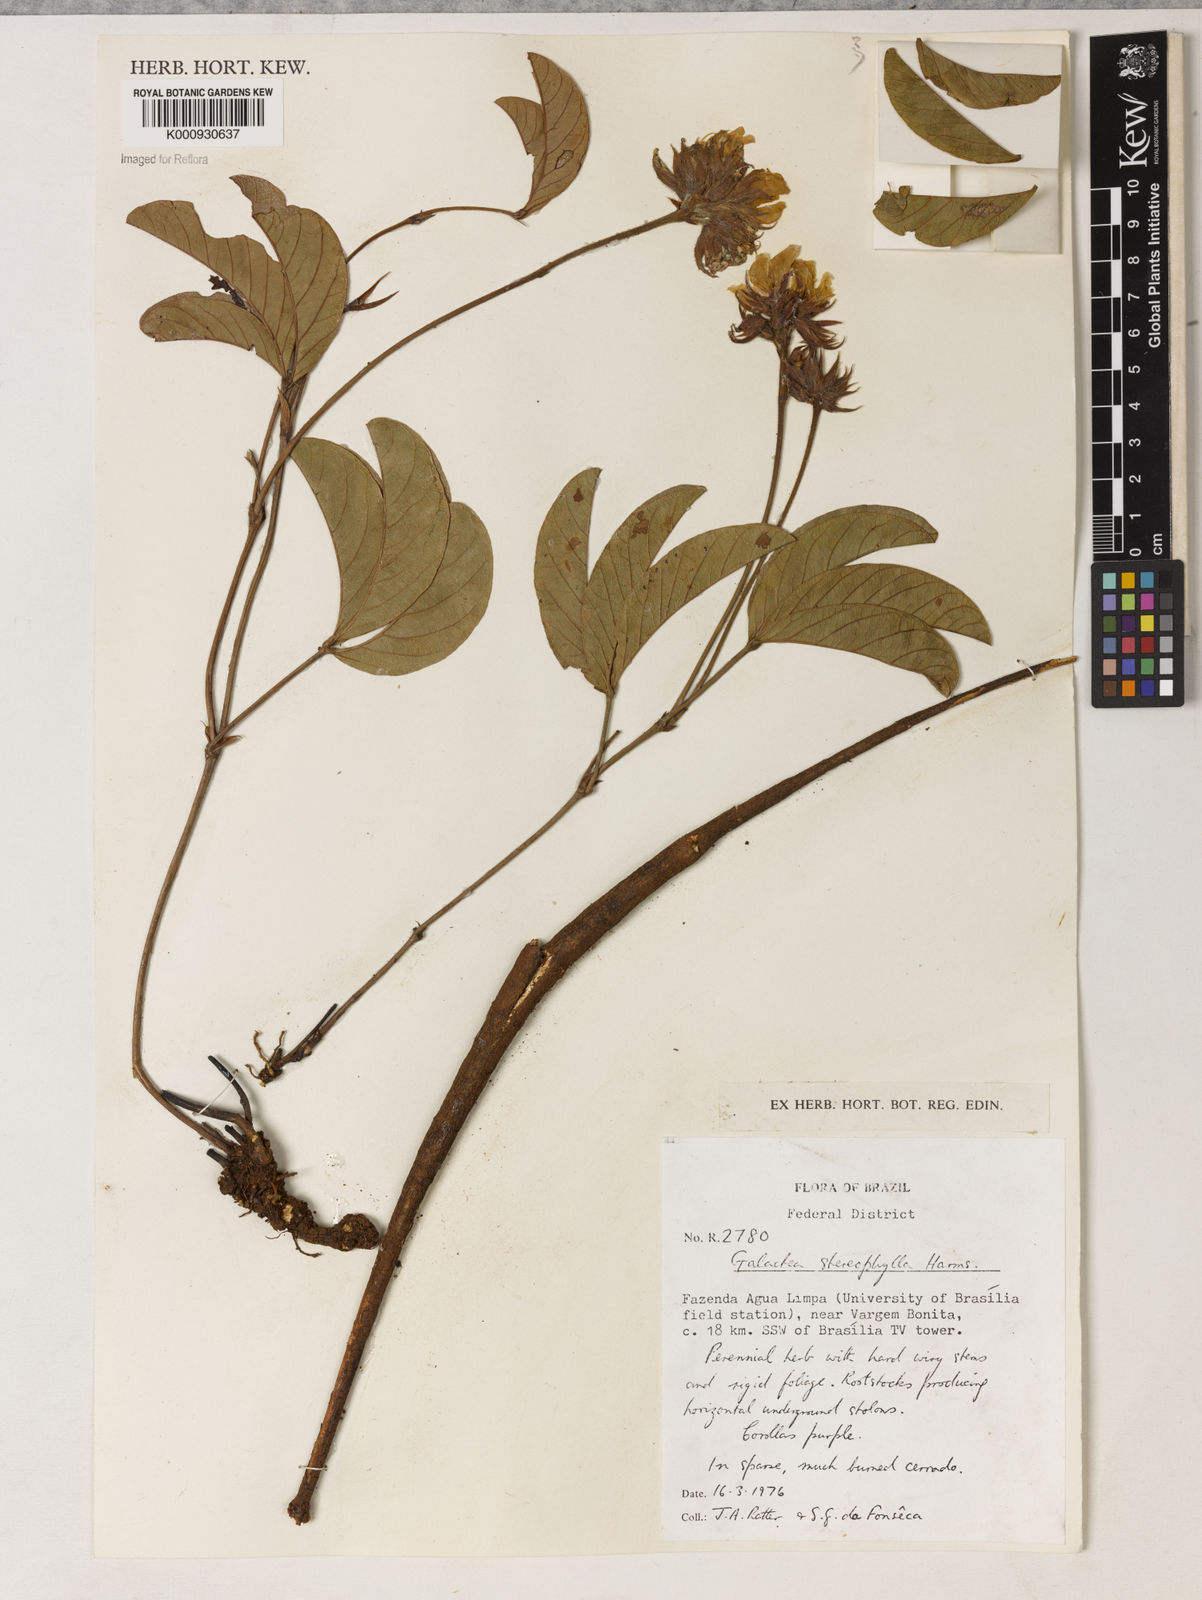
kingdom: Plantae
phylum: Tracheophyta
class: Magnoliopsida
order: Fabales
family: Fabaceae
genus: Betencourtia
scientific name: Betencourtia stereophylla
